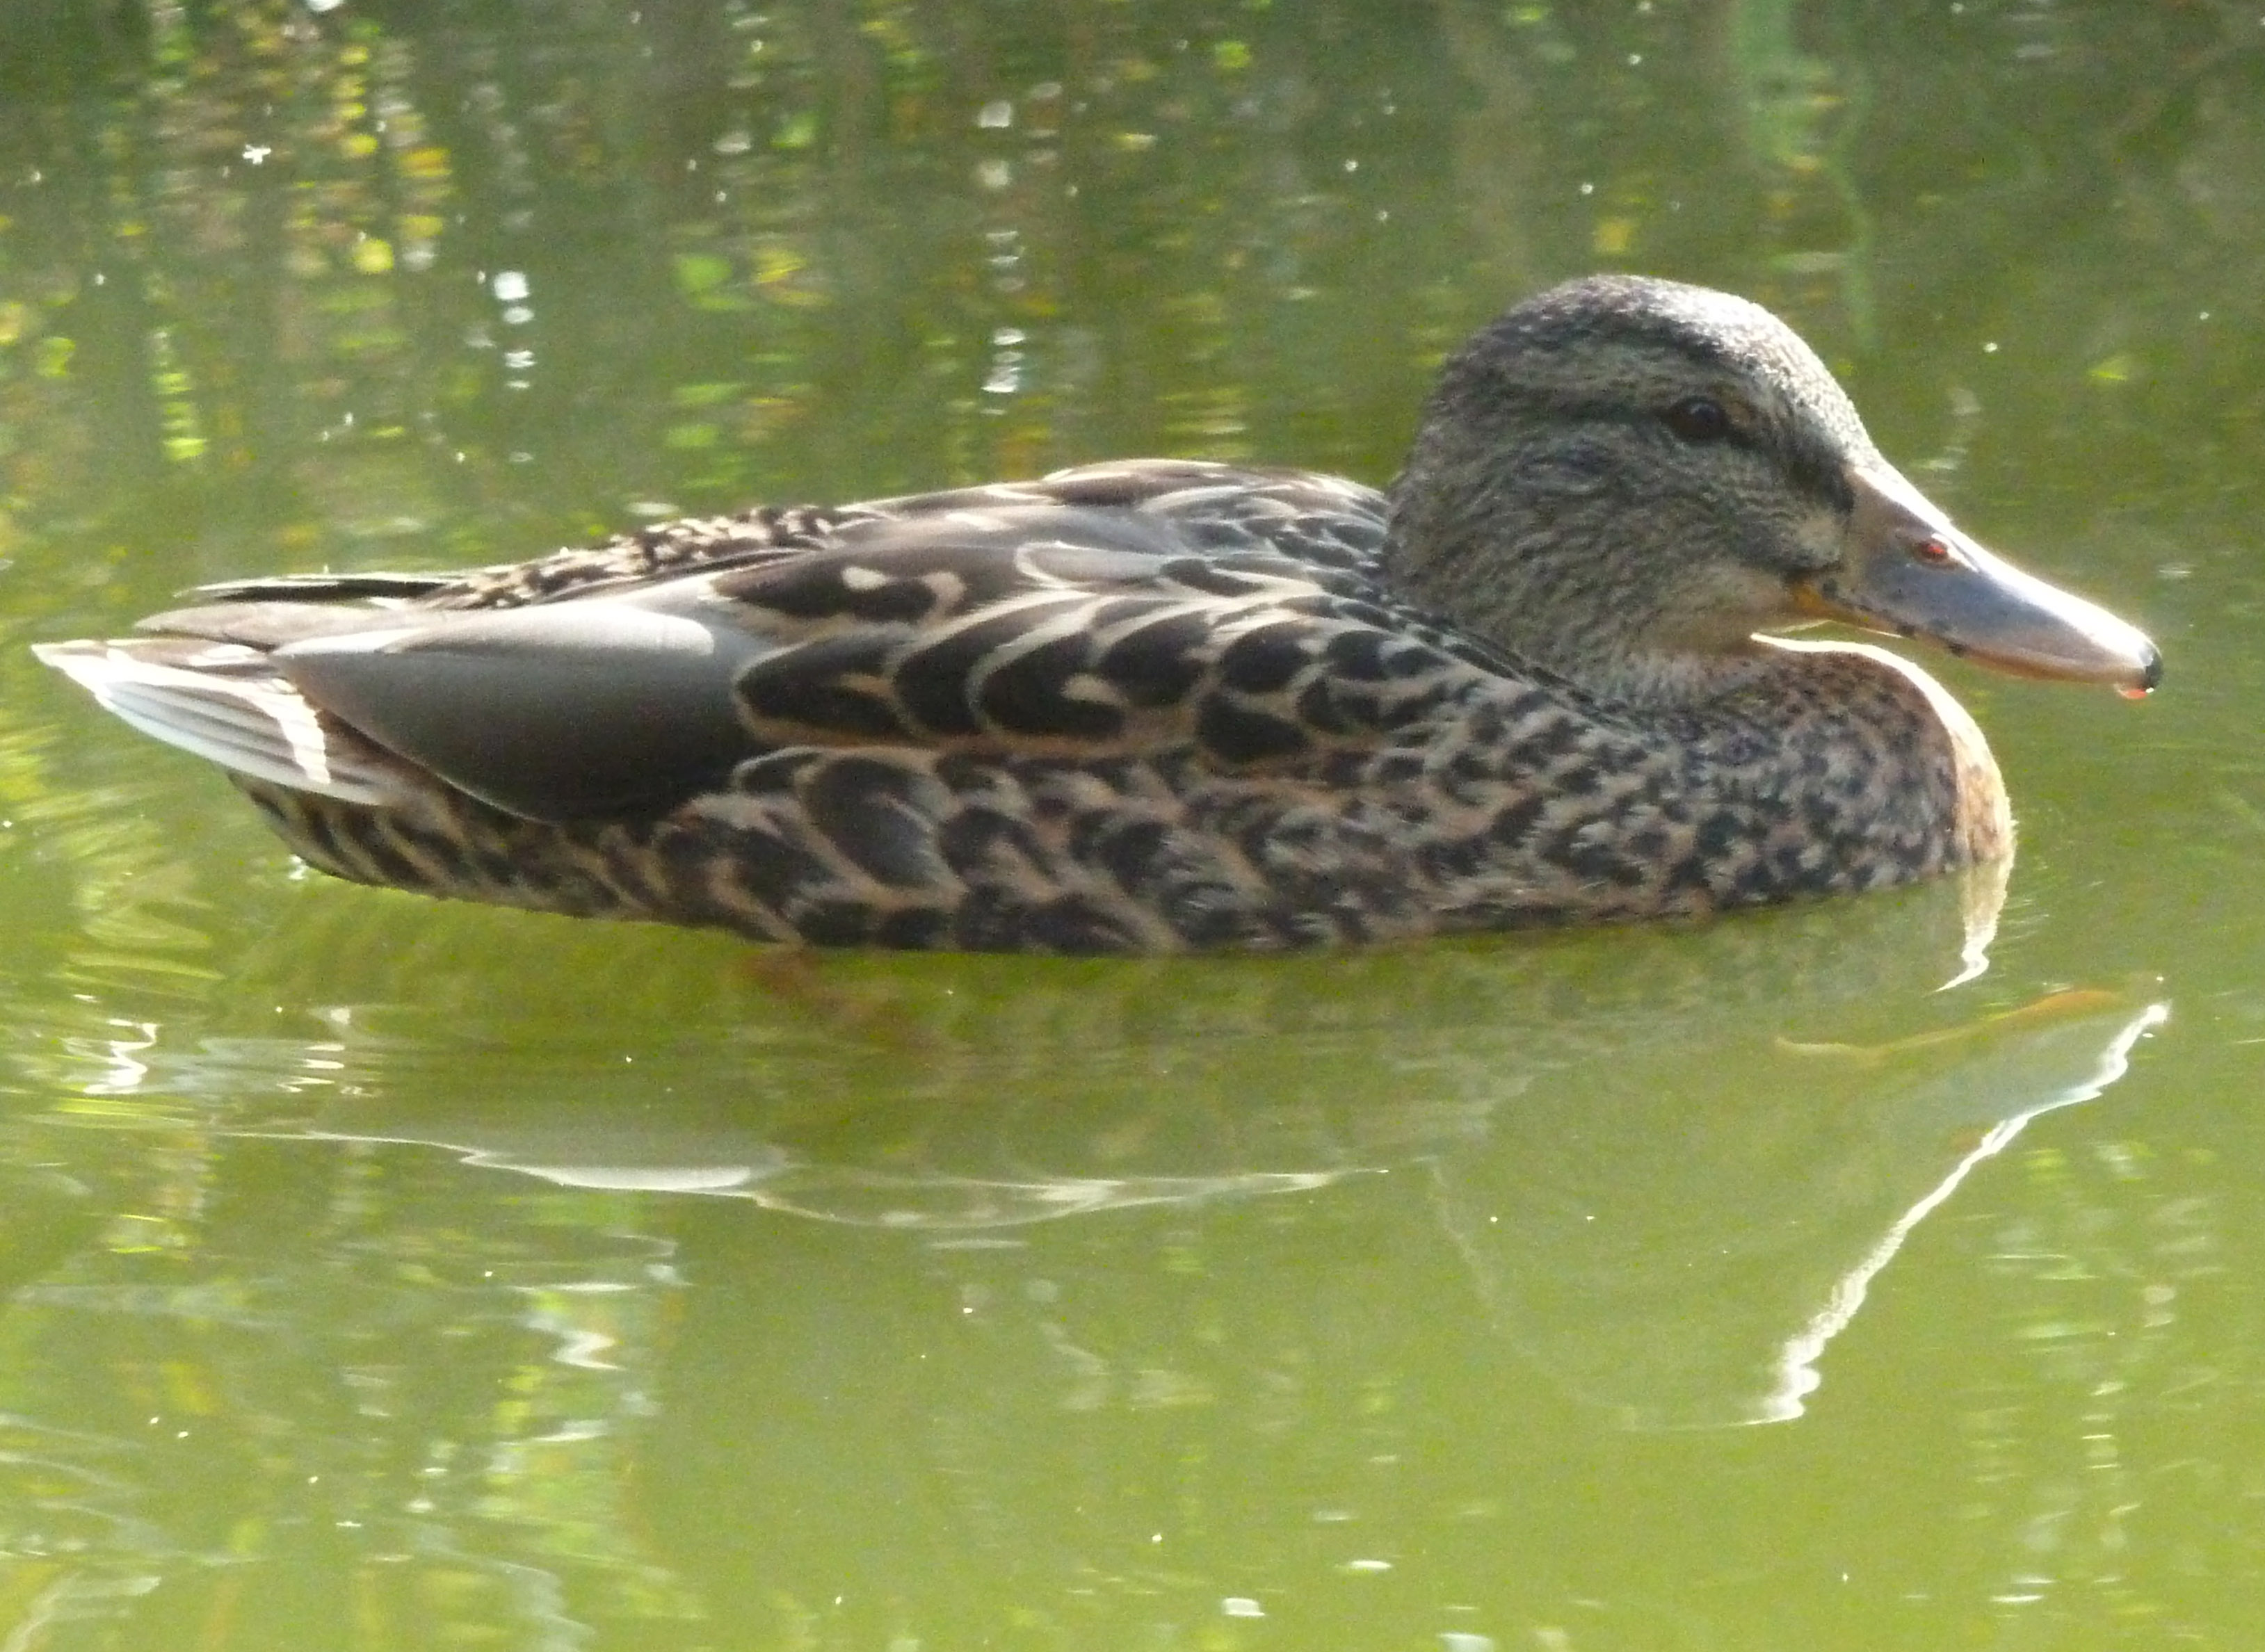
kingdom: Animalia
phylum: Chordata
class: Aves
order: Anseriformes
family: Anatidae
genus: Anas
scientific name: Anas platyrhynchos
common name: Mallard
